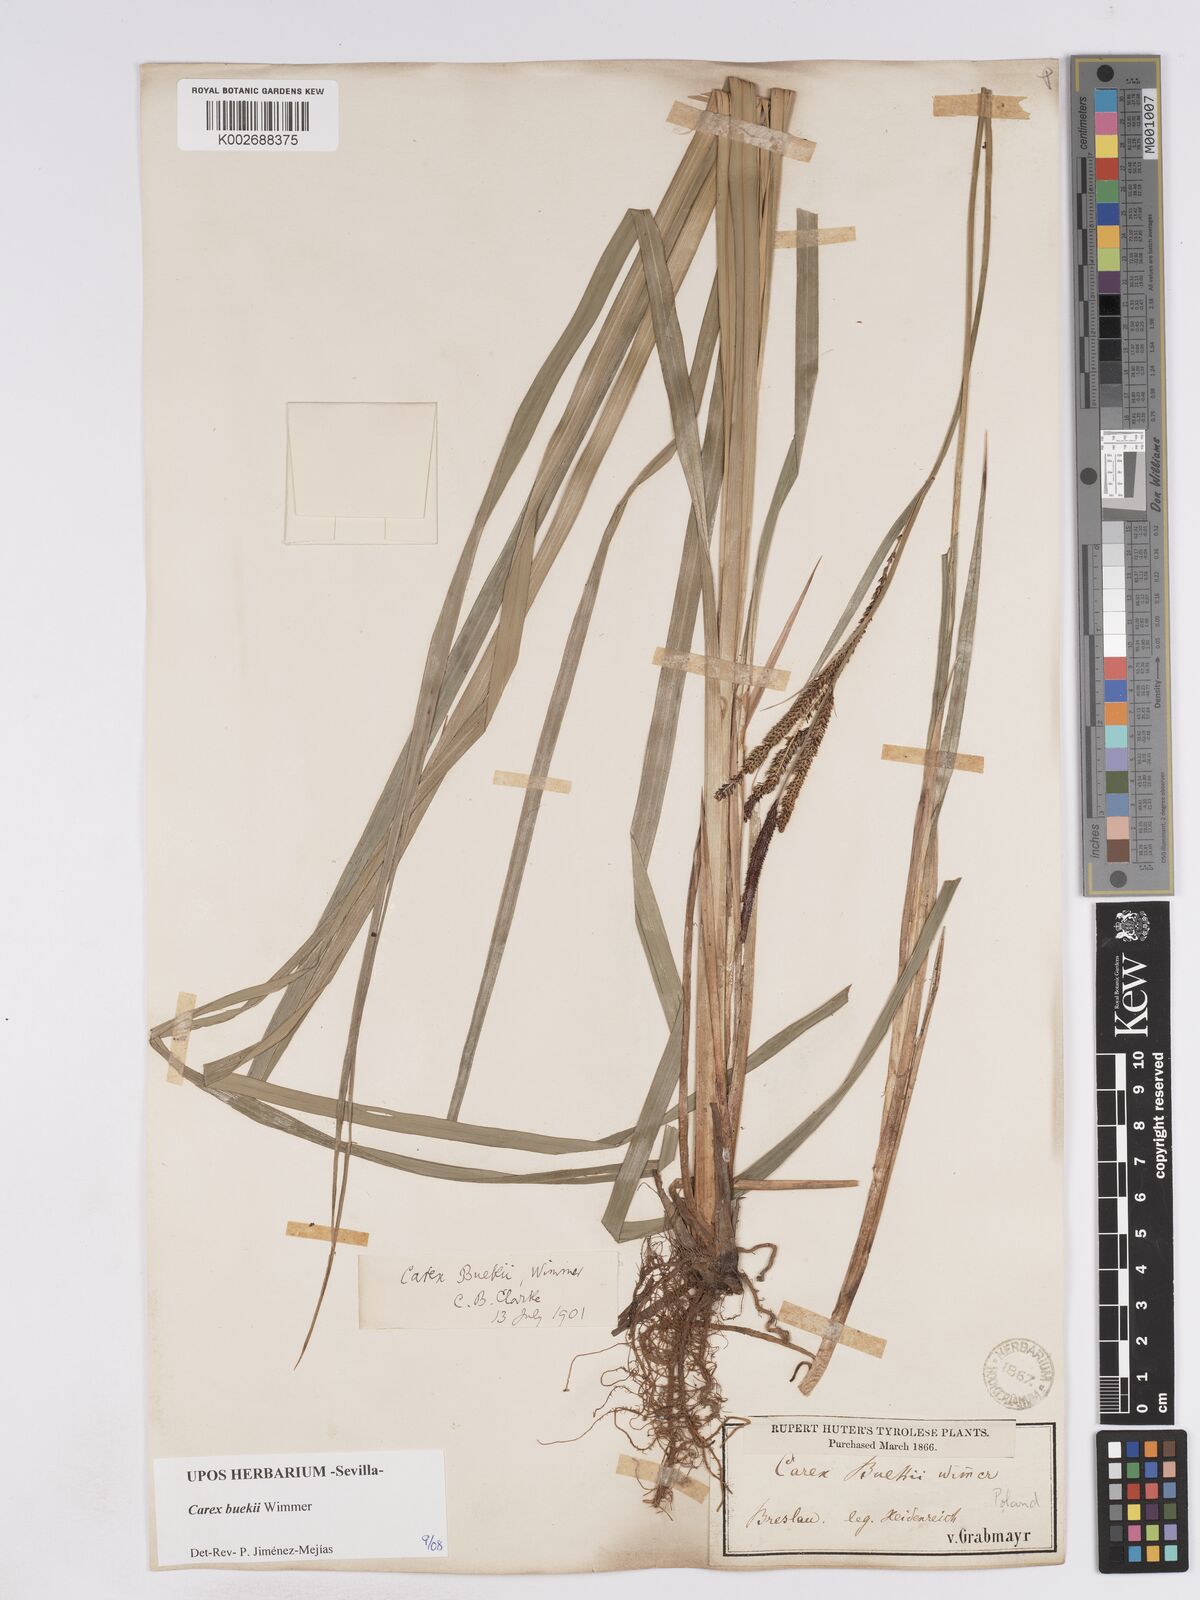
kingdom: Plantae
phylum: Tracheophyta
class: Liliopsida
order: Poales
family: Cyperaceae
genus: Carex
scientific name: Carex buekii
